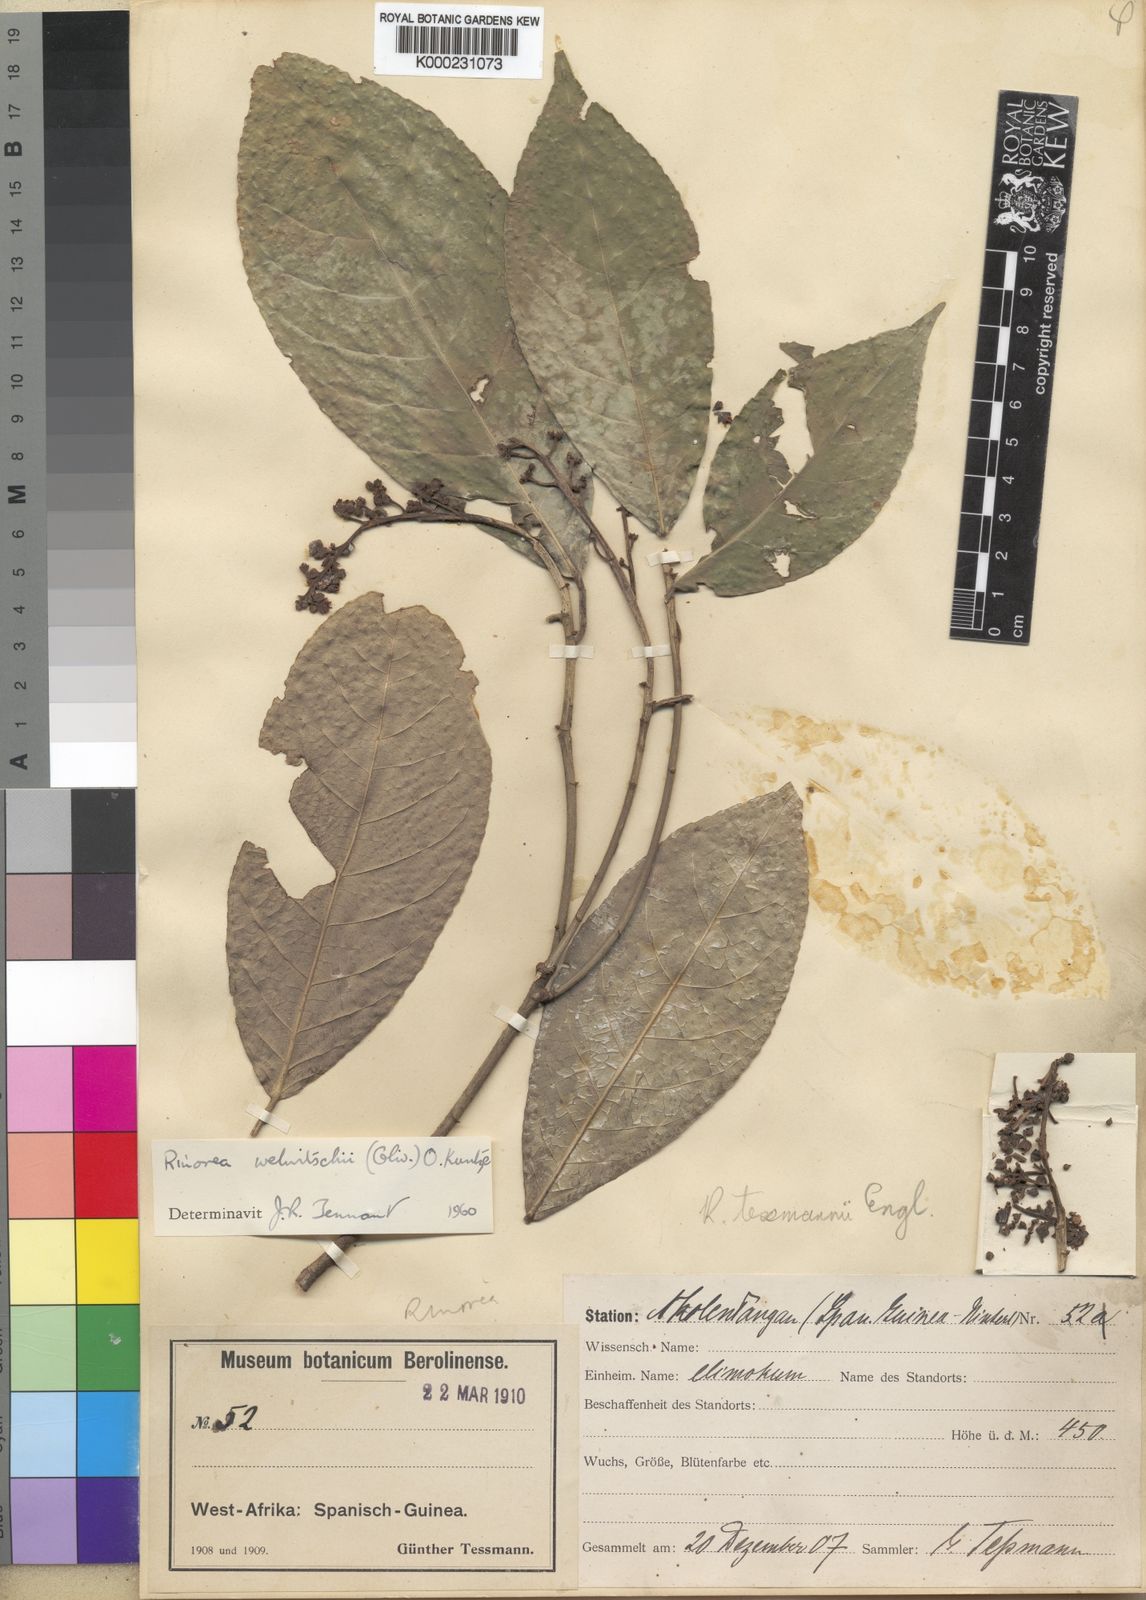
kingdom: Plantae
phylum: Tracheophyta
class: Magnoliopsida
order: Malpighiales
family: Violaceae
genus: Rinorea
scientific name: Rinorea welwitschii
